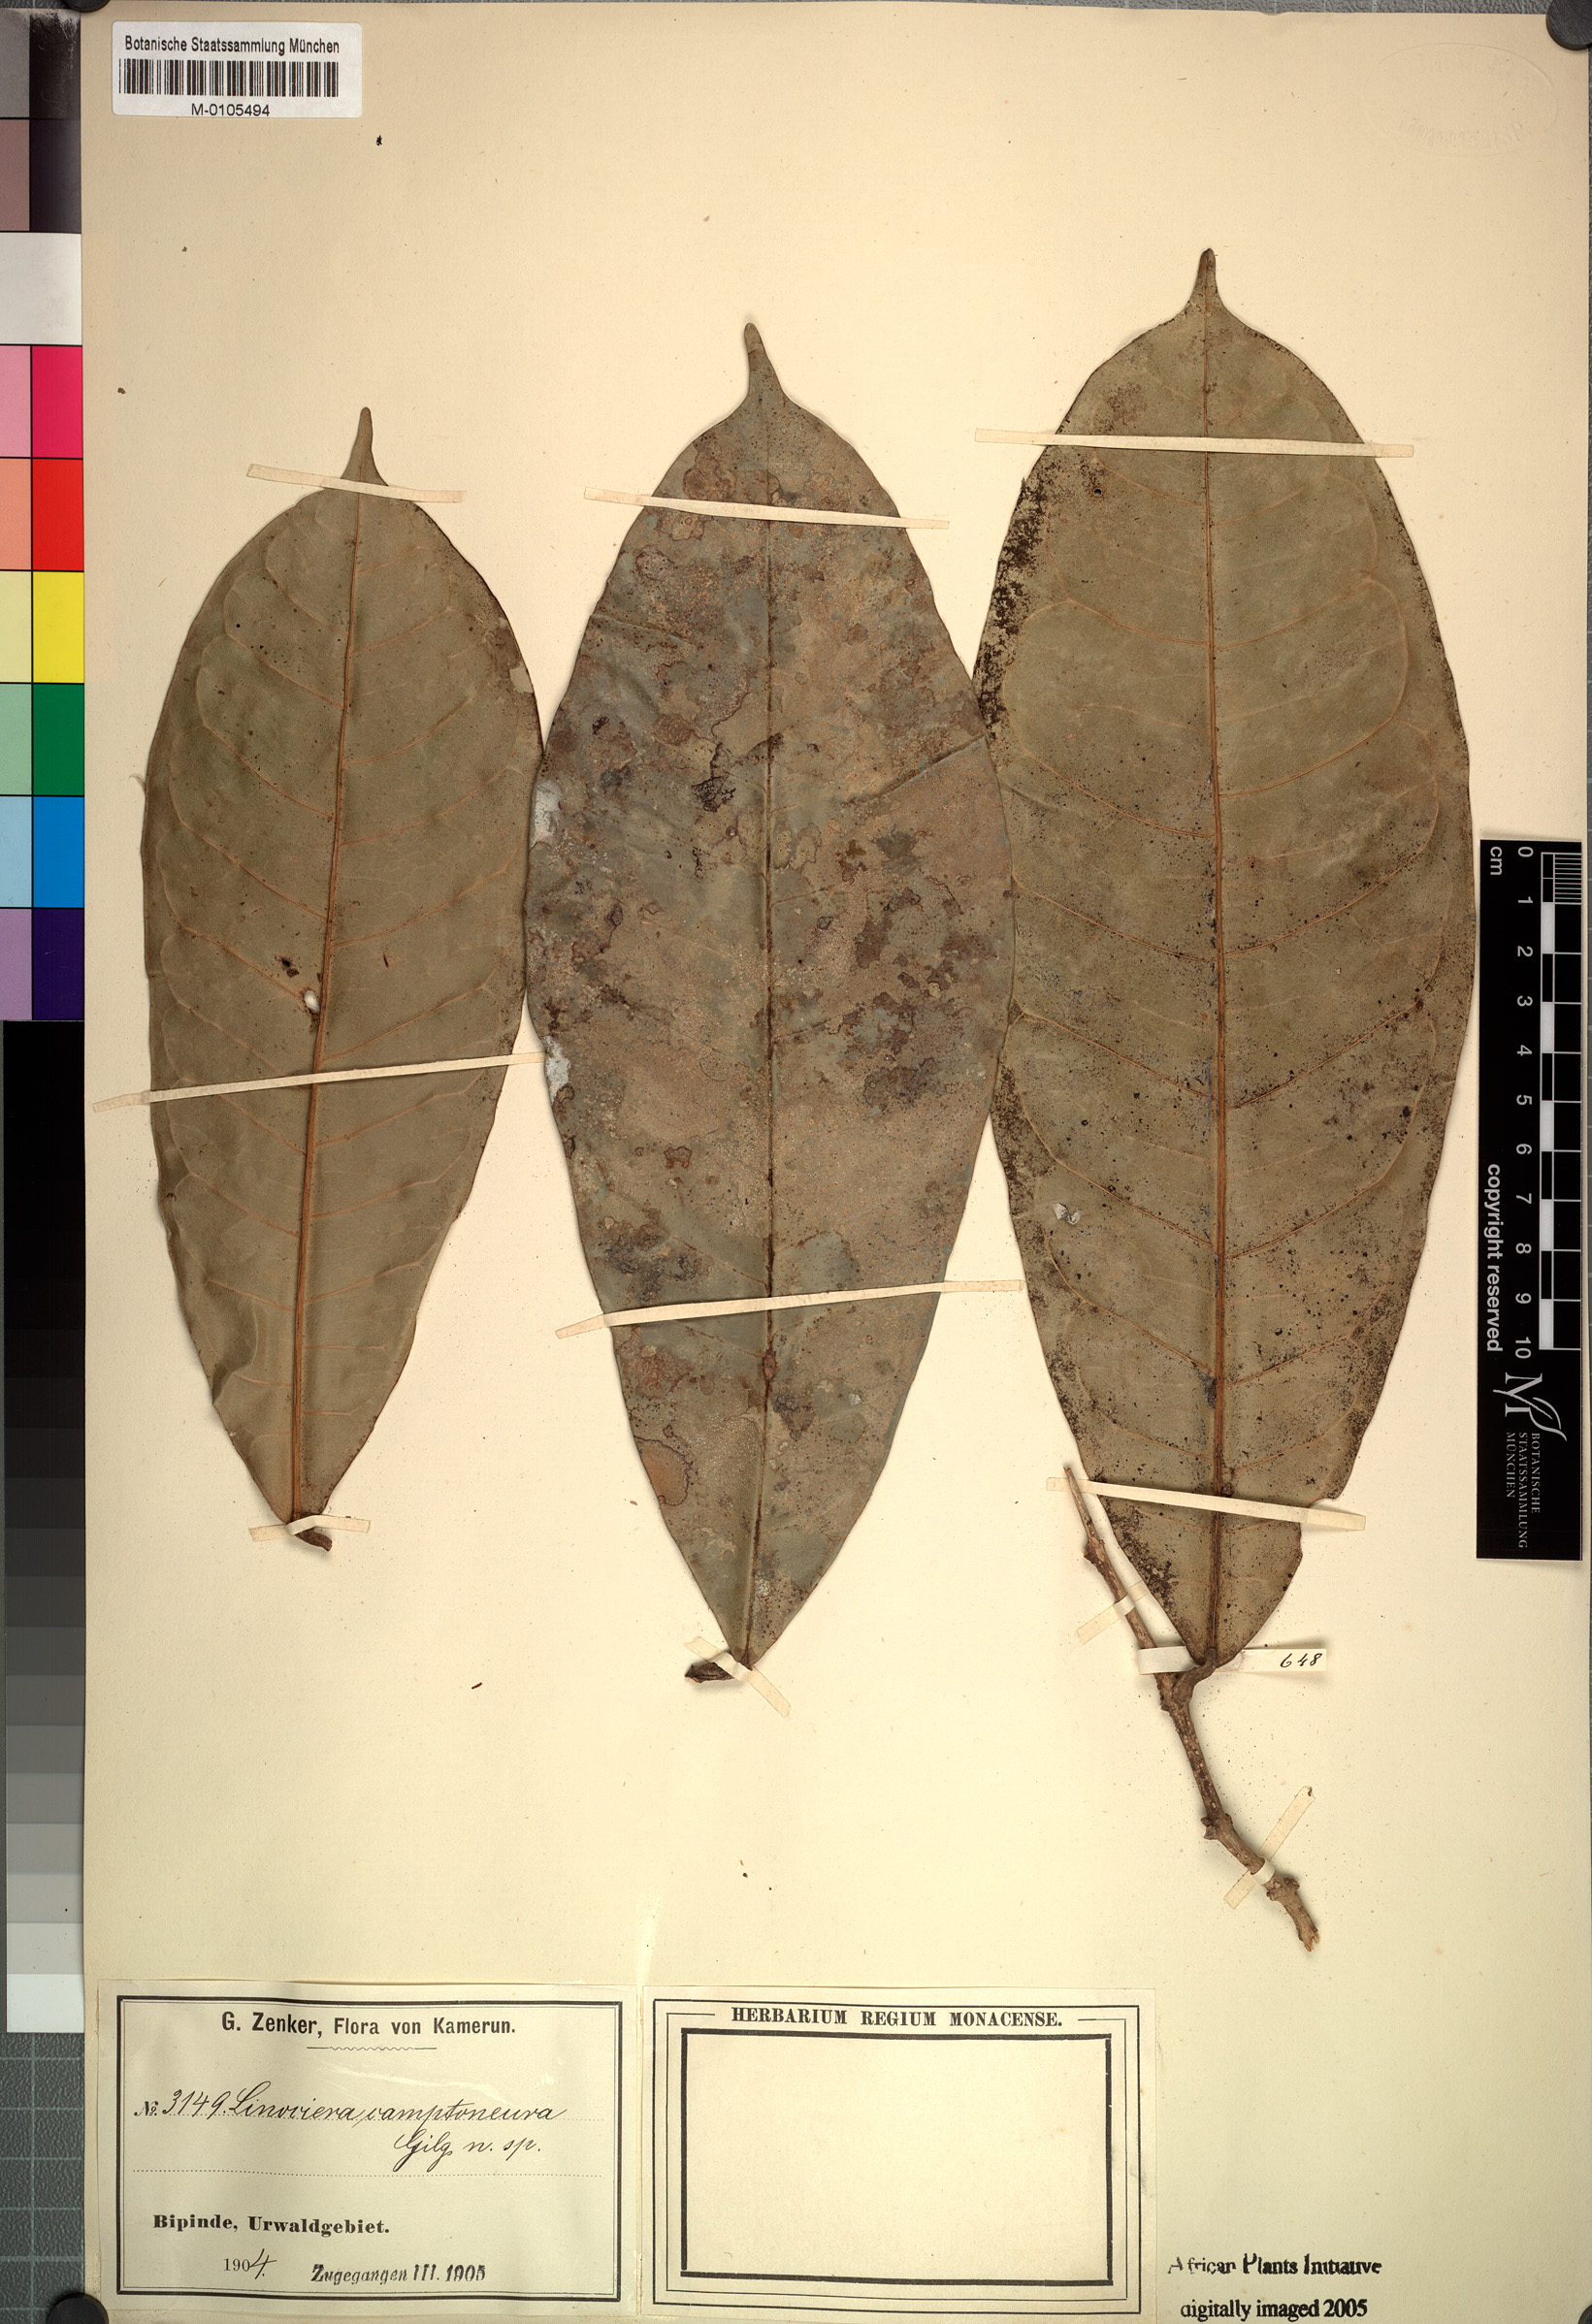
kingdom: Plantae
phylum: Tracheophyta
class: Magnoliopsida
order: Lamiales
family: Oleaceae
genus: Noronhia
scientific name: Noronhia camptoneura
